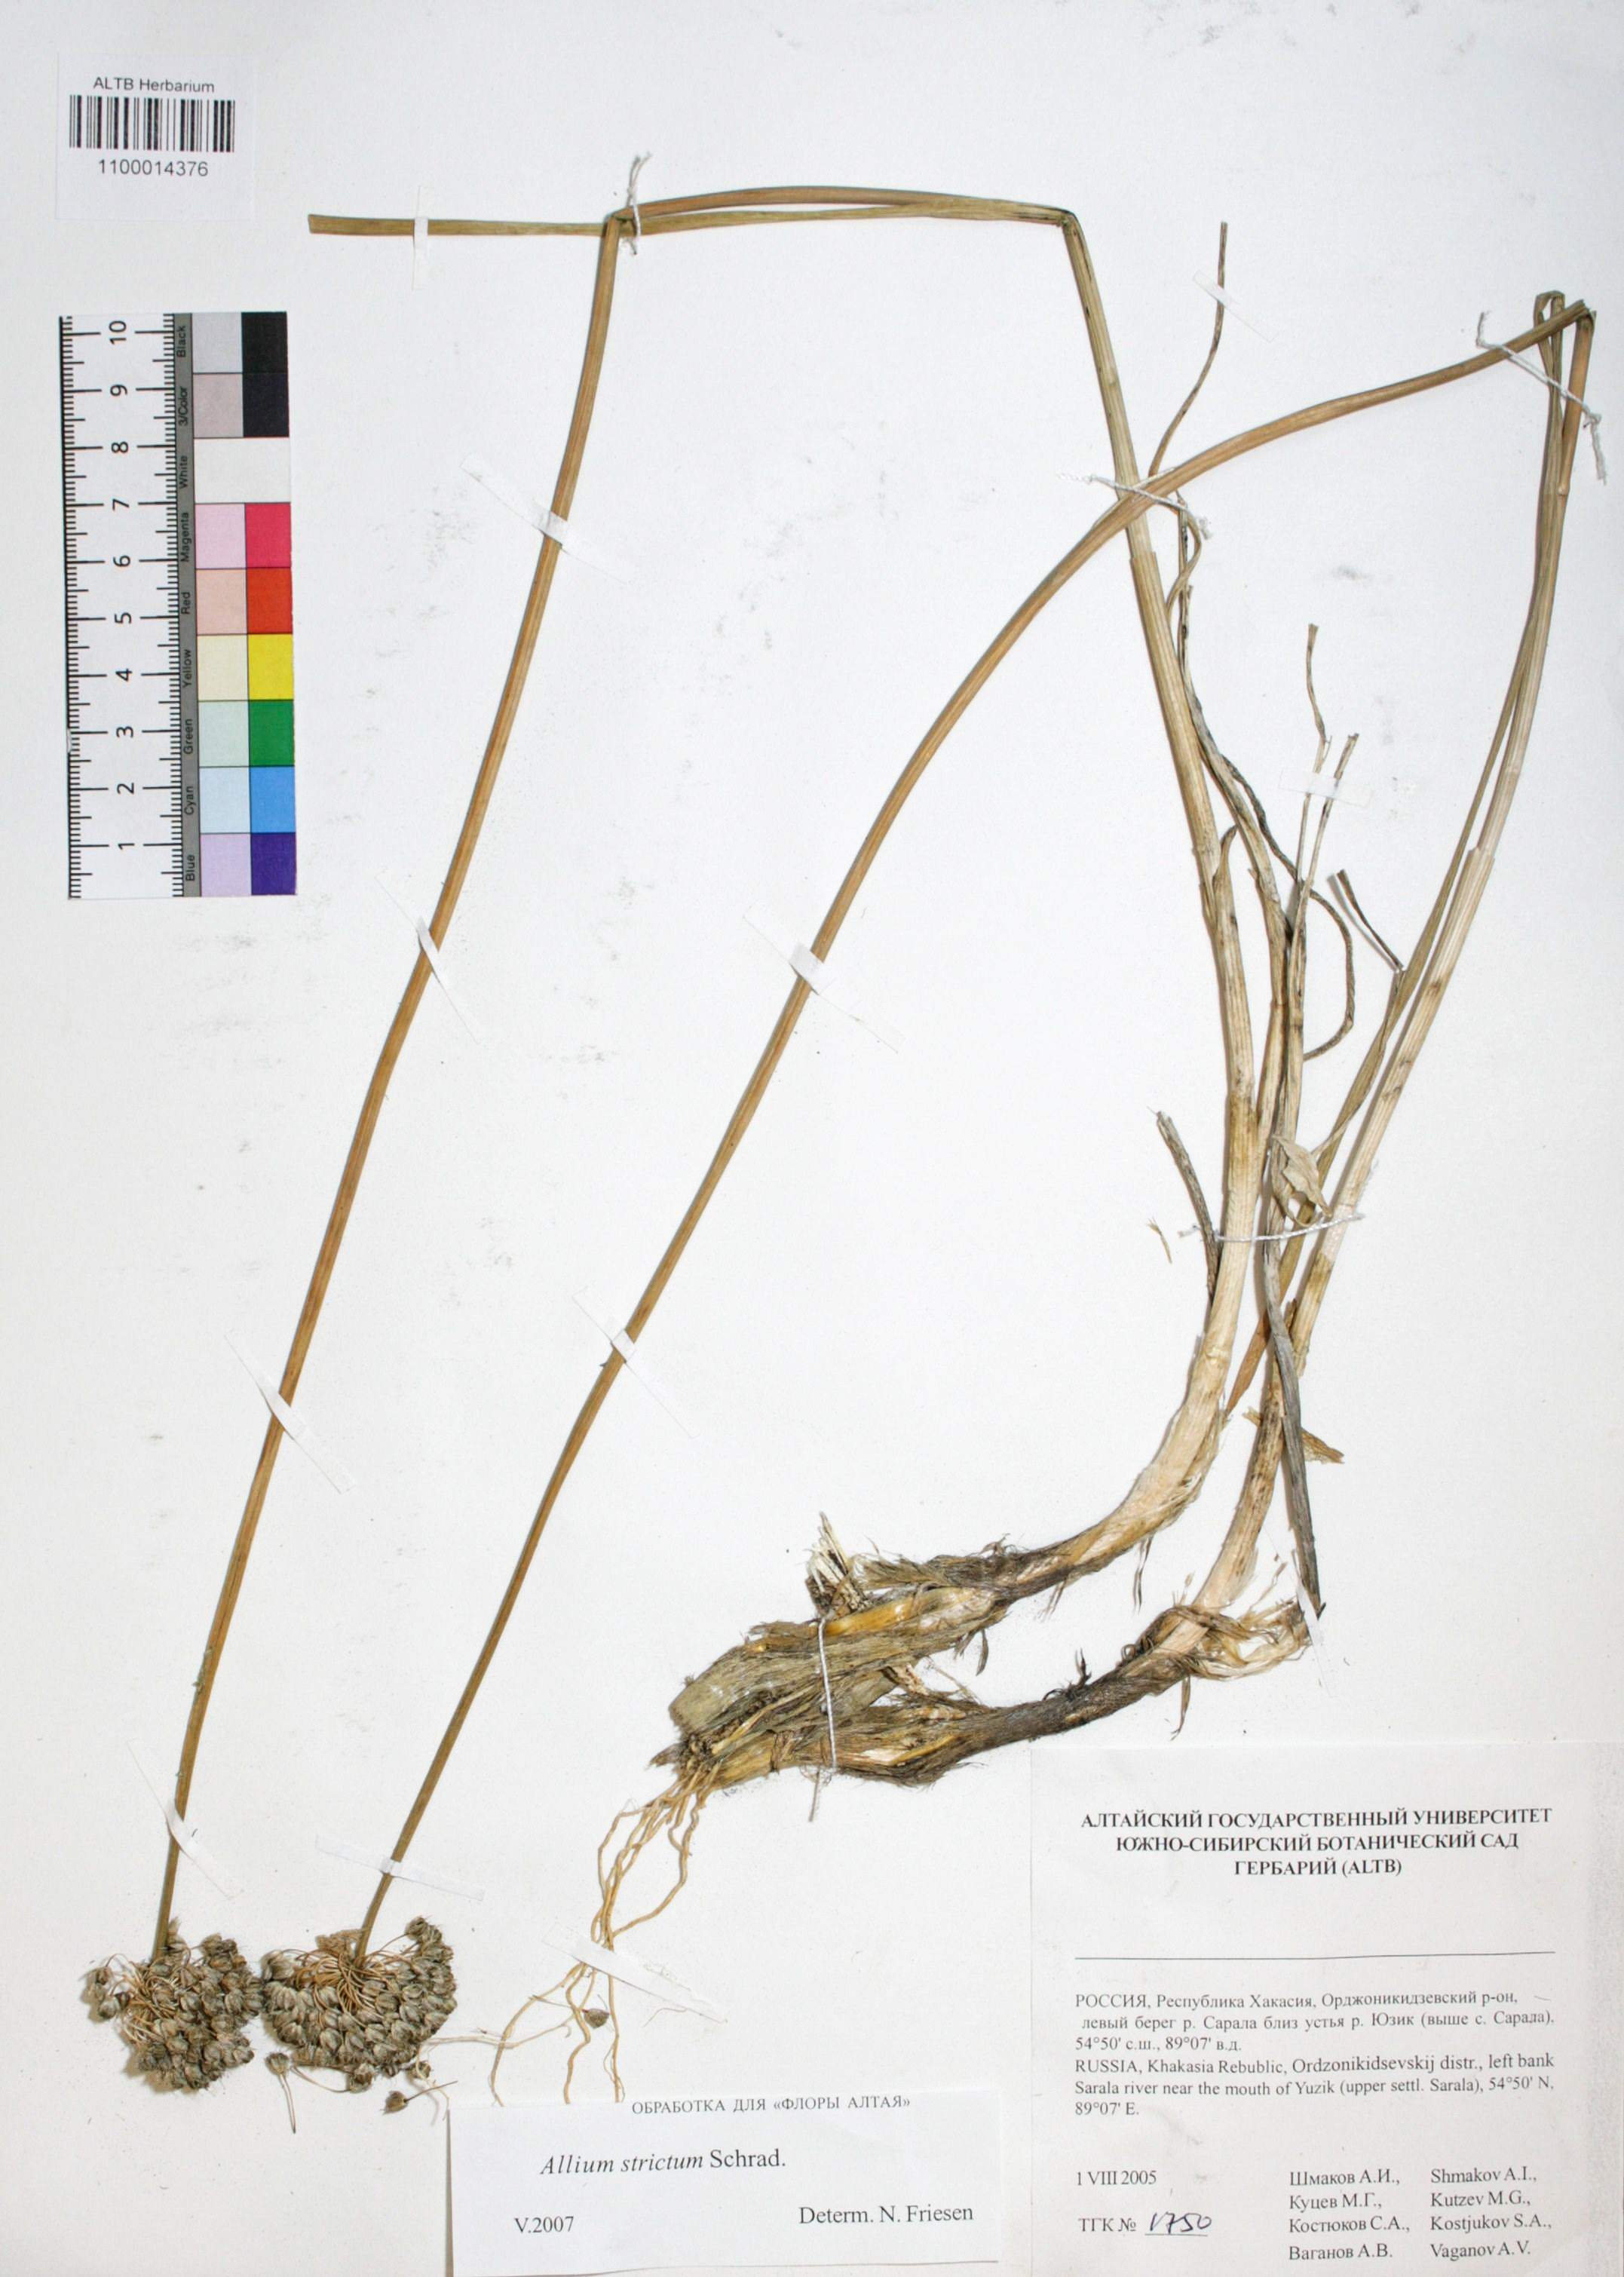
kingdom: Plantae
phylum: Tracheophyta
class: Liliopsida
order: Asparagales
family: Amaryllidaceae
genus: Allium
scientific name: Allium strictum
